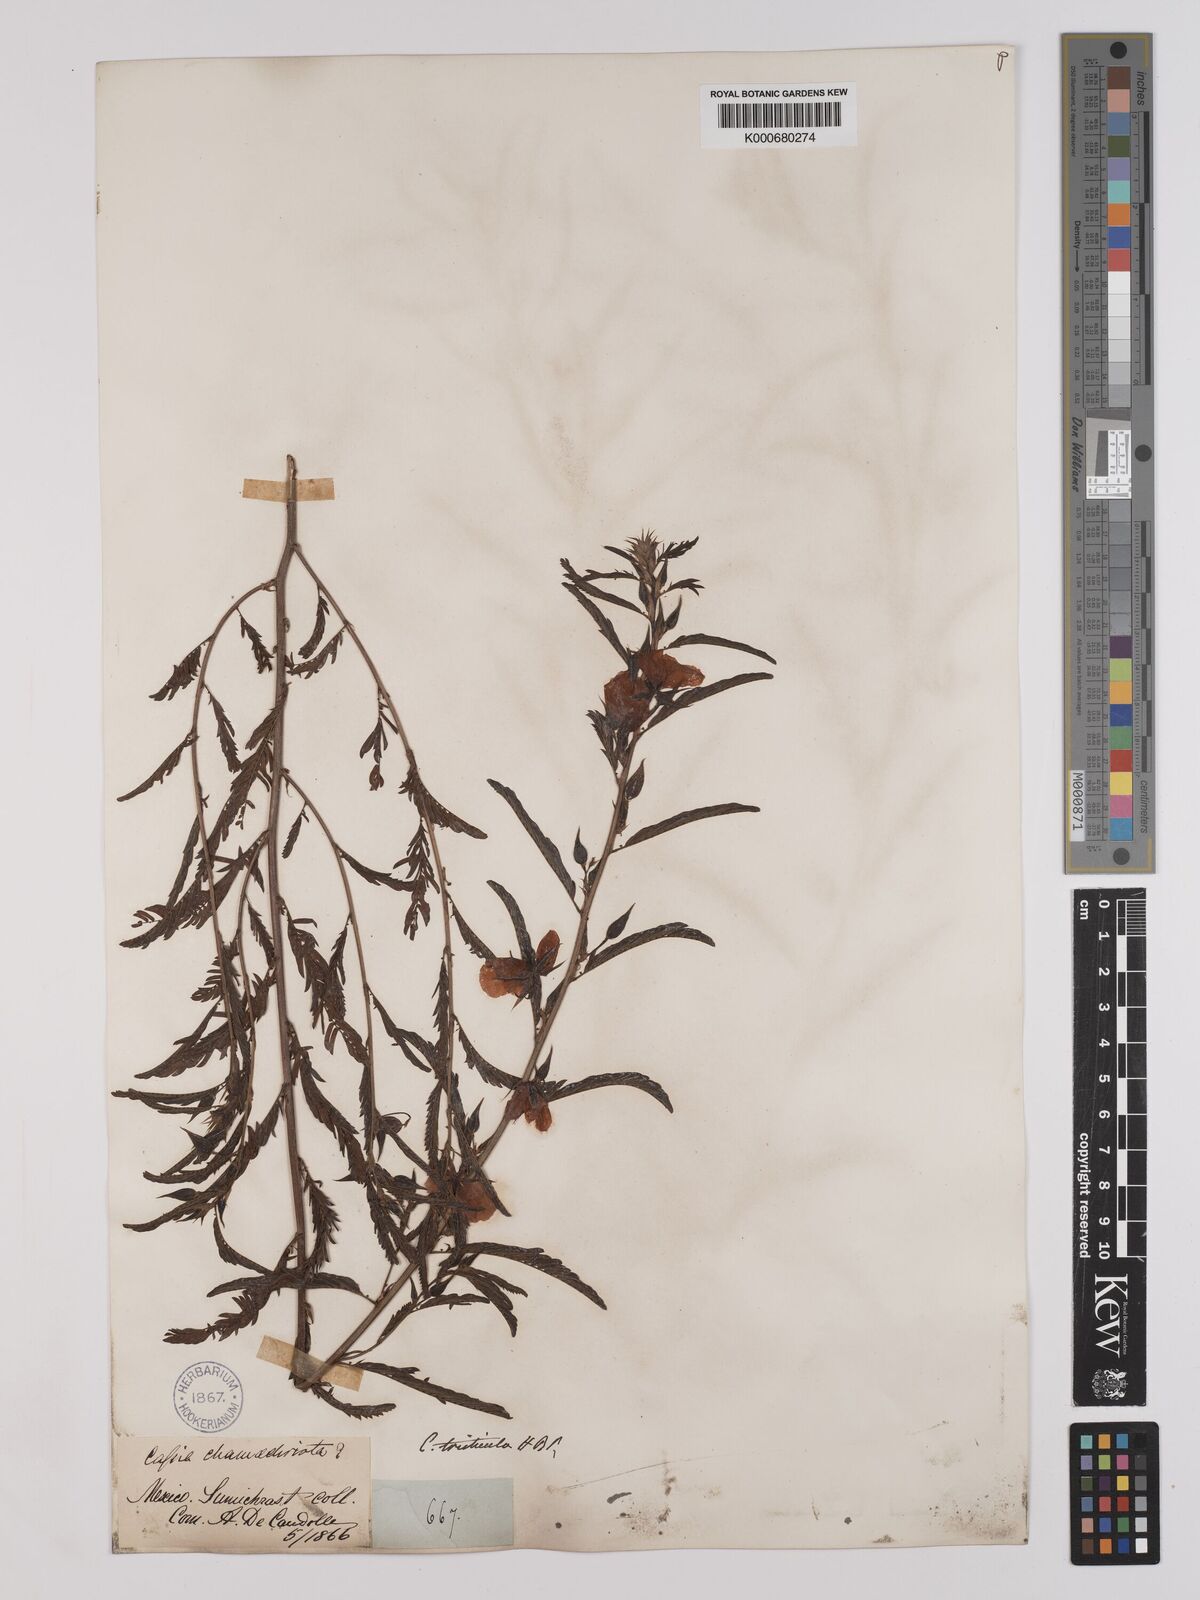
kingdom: Plantae
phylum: Tracheophyta
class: Magnoliopsida
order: Fabales
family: Fabaceae
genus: Chamaecrista
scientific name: Chamaecrista glandulosa
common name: Wild peas
